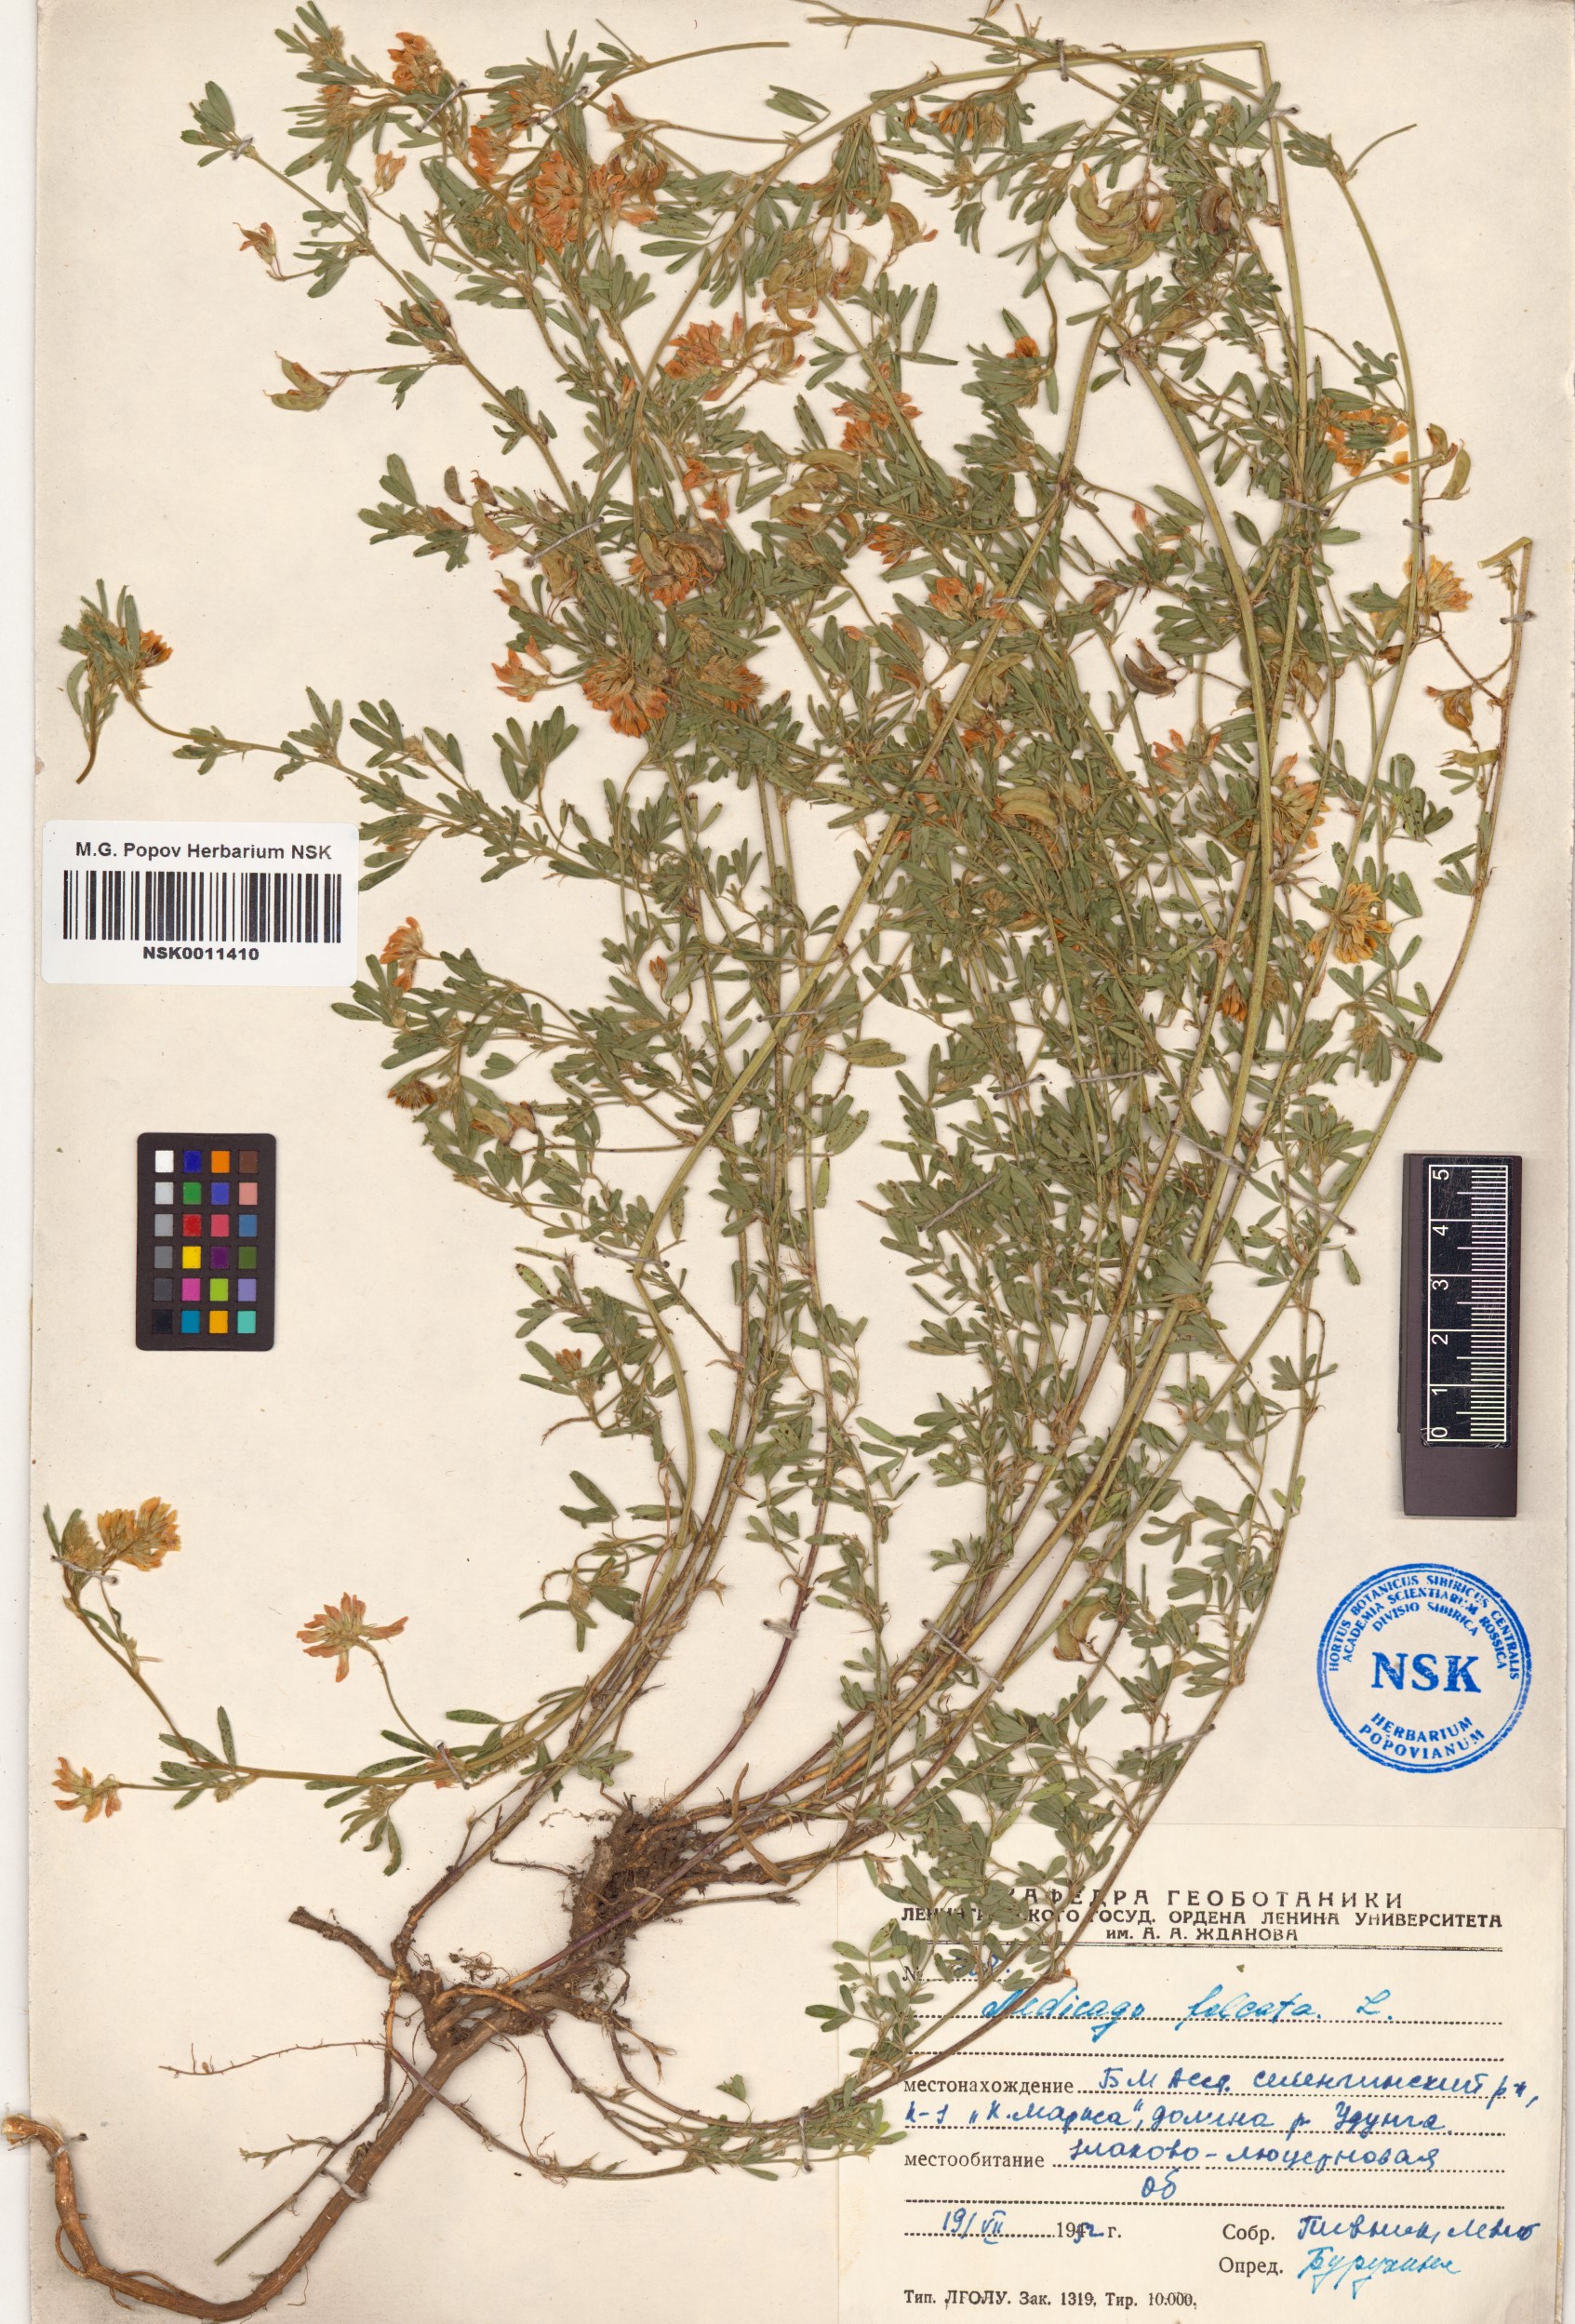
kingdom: Plantae
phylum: Tracheophyta
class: Magnoliopsida
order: Fabales
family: Fabaceae
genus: Medicago
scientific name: Medicago falcata
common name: Sickle medick
